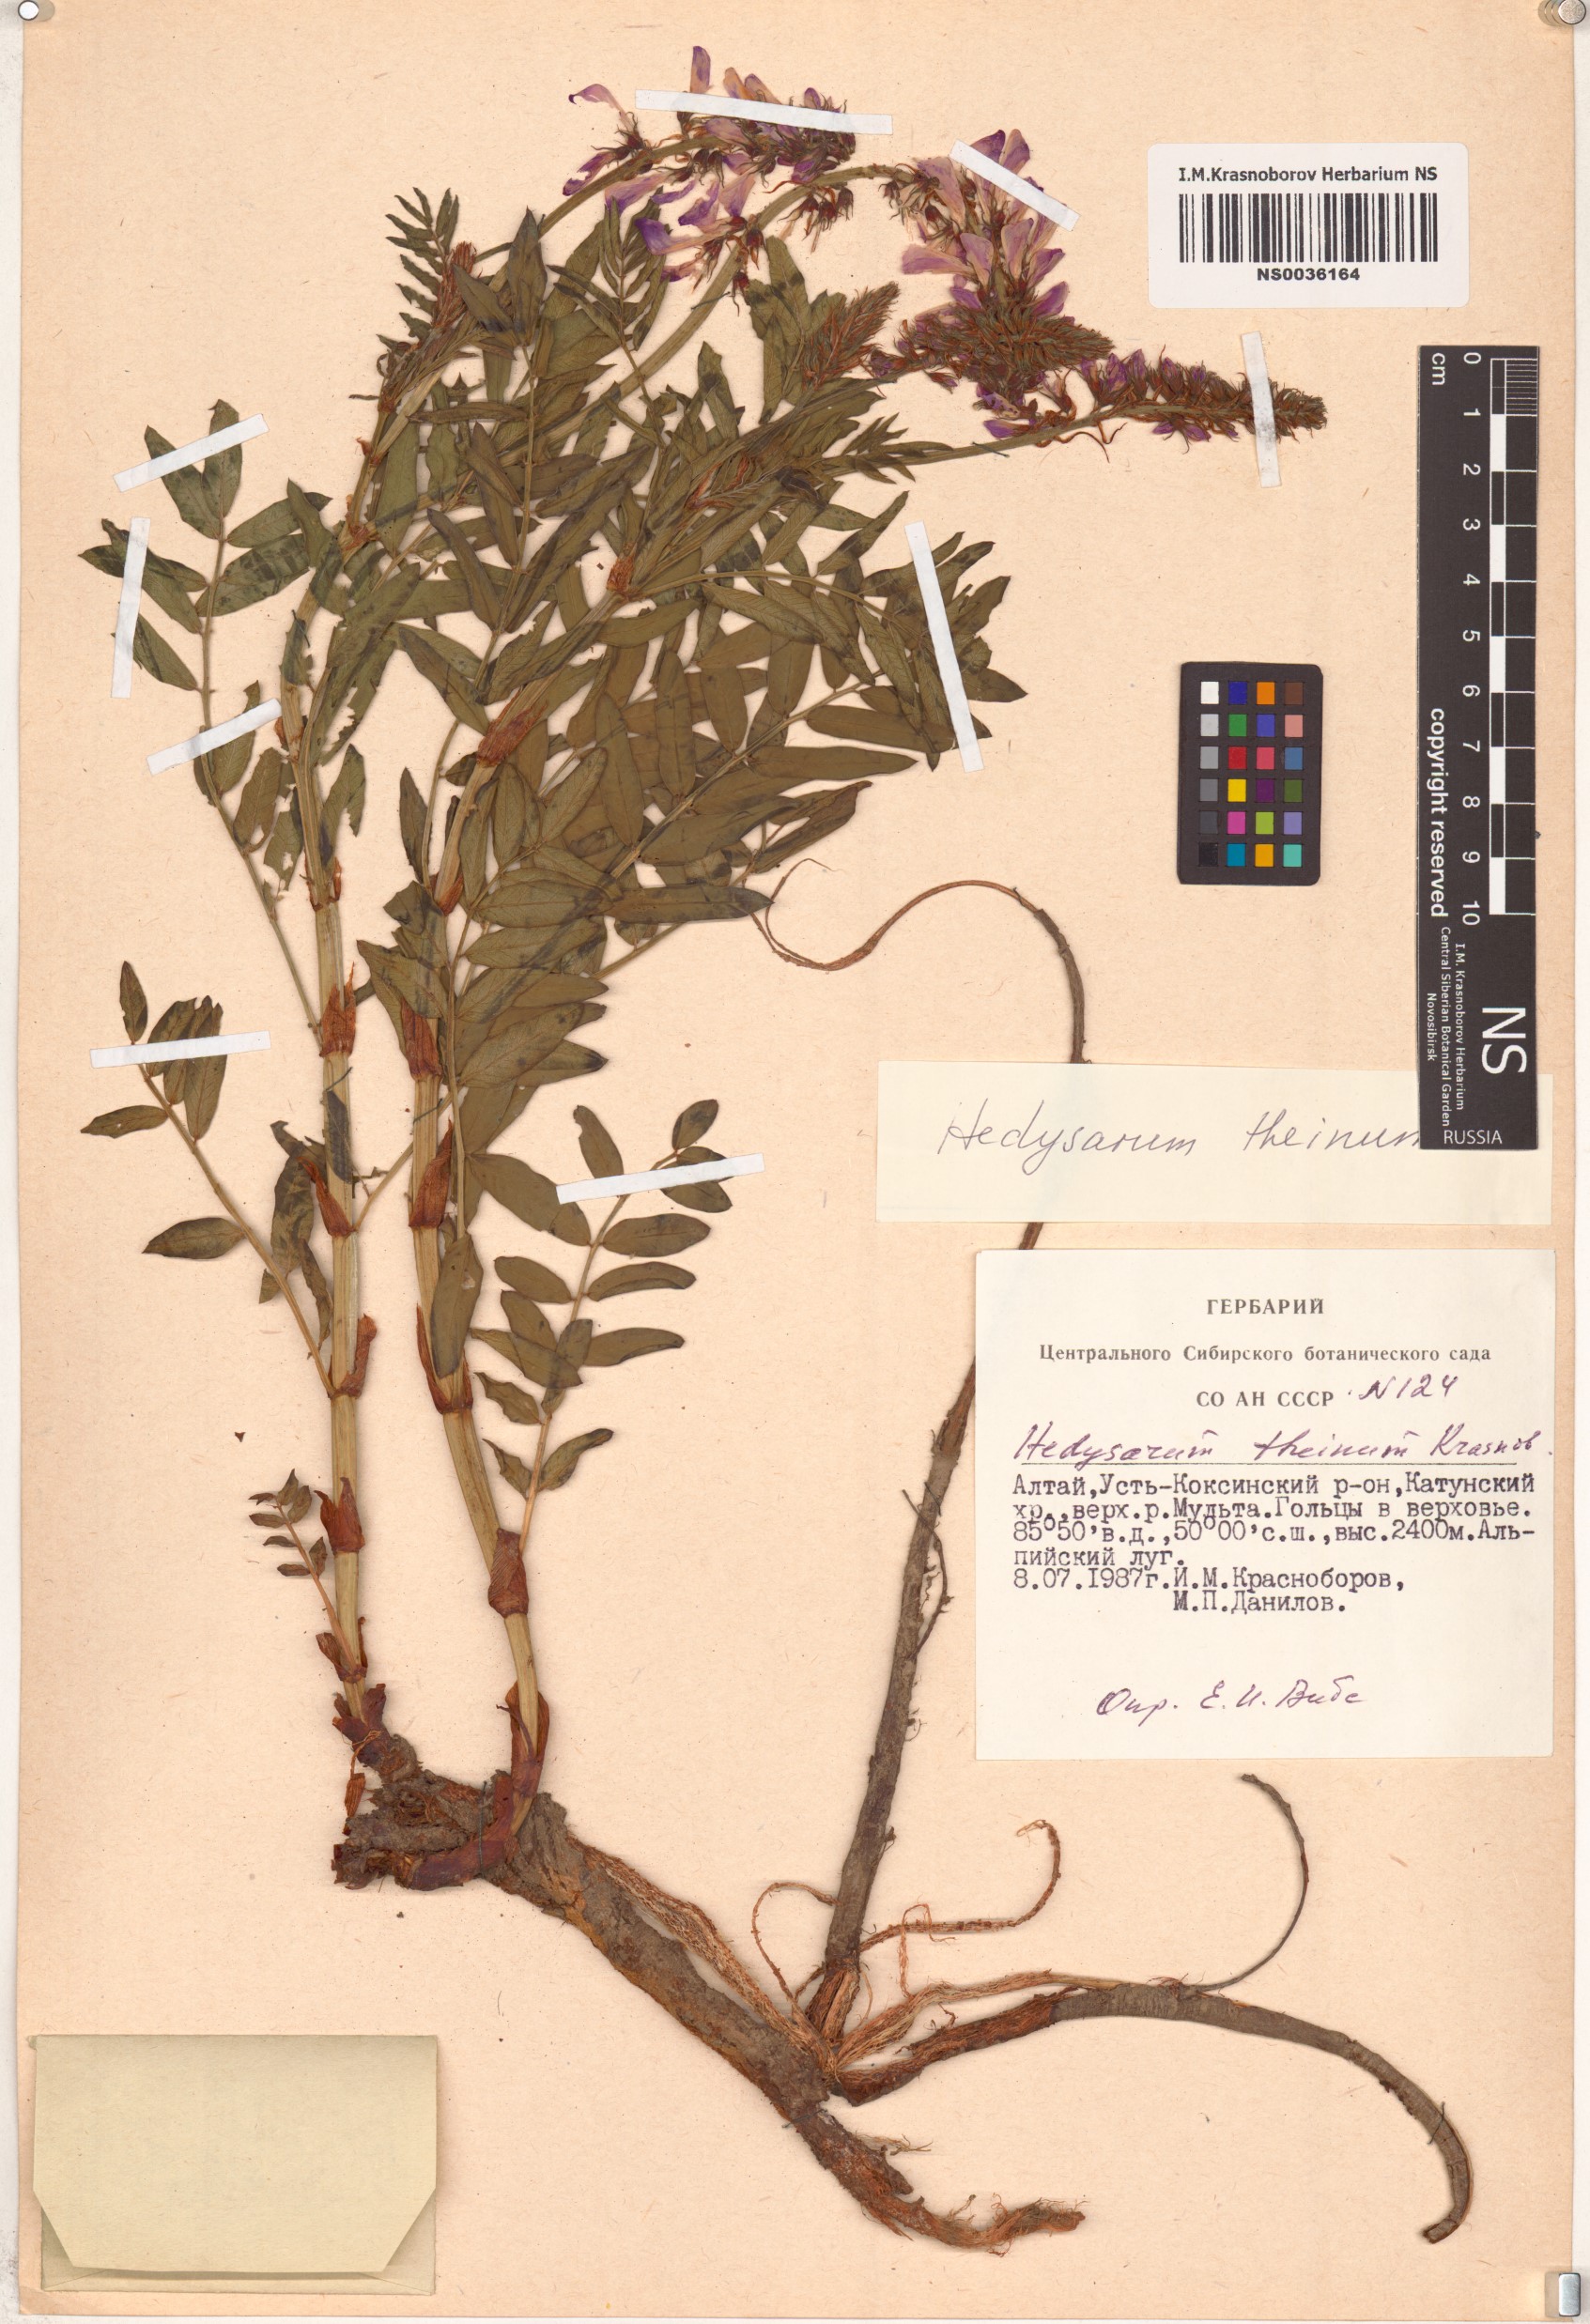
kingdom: Plantae
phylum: Tracheophyta
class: Magnoliopsida
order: Fabales
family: Fabaceae
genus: Hedysarum
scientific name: Hedysarum theinum
